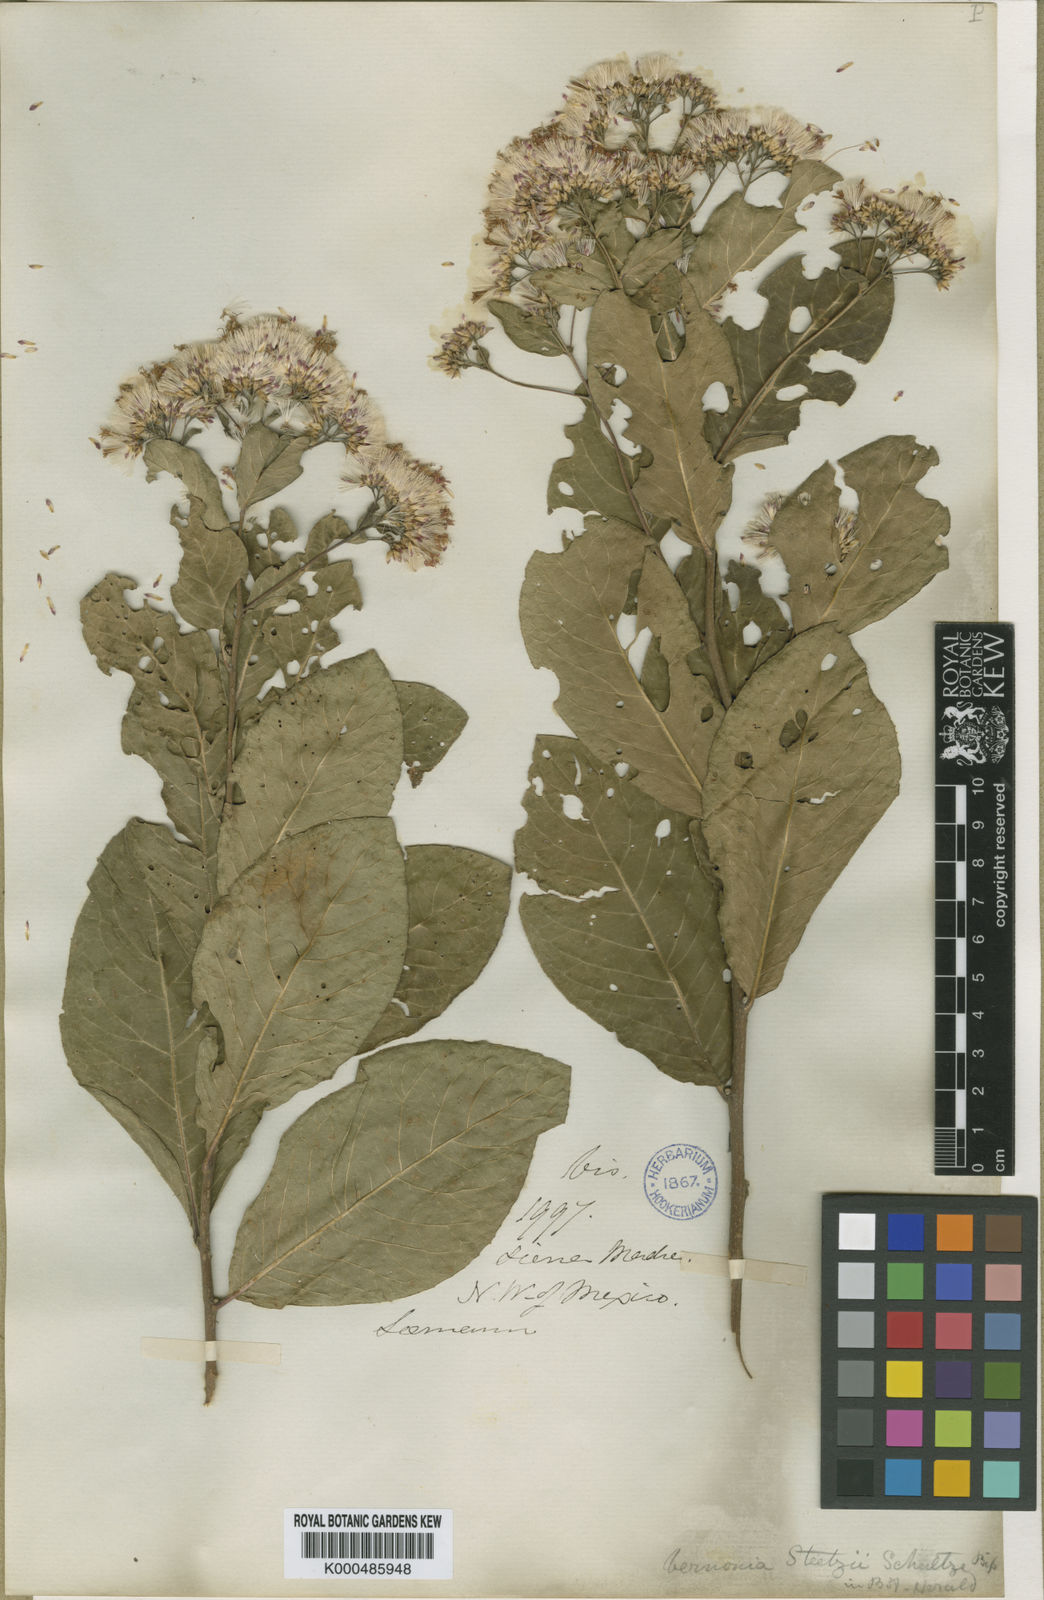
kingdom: Plantae
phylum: Tracheophyta
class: Magnoliopsida
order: Asterales
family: Asteraceae
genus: Eremosis
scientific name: Eremosis foliosa
